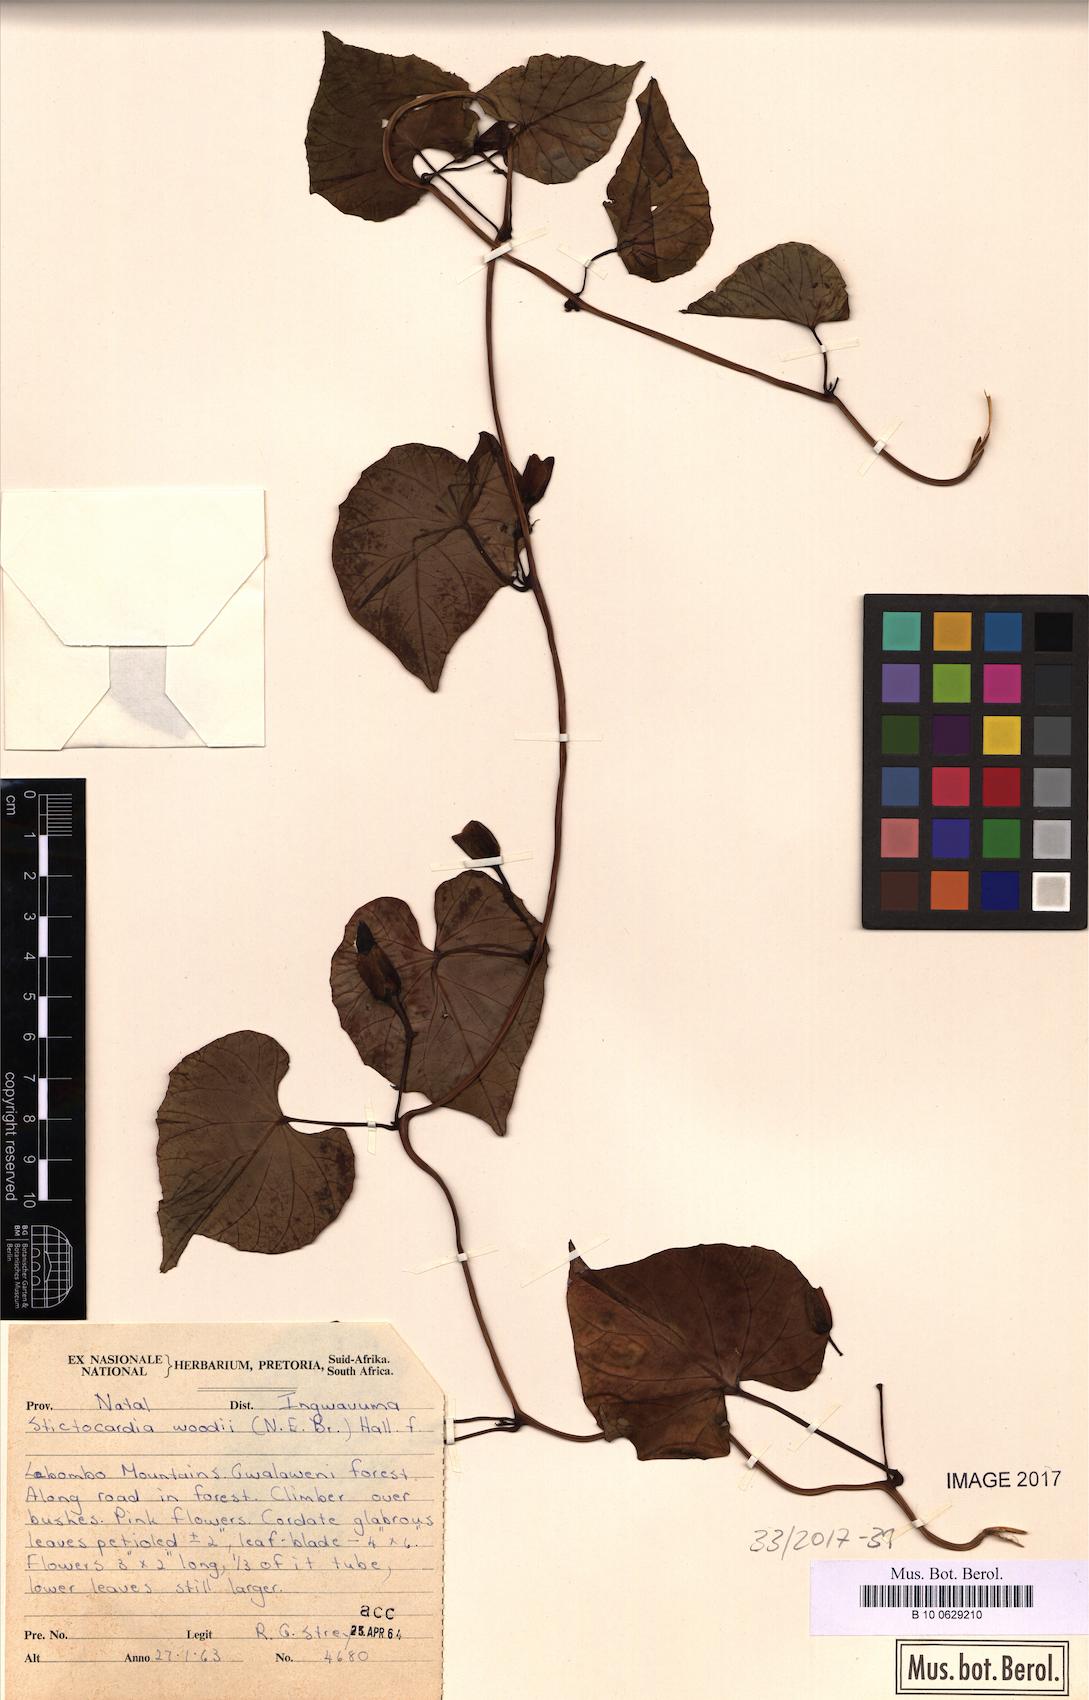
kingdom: Plantae
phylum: Tracheophyta
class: Magnoliopsida
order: Solanales
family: Convolvulaceae
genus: Stictocardia
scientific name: Stictocardia laxiflora
